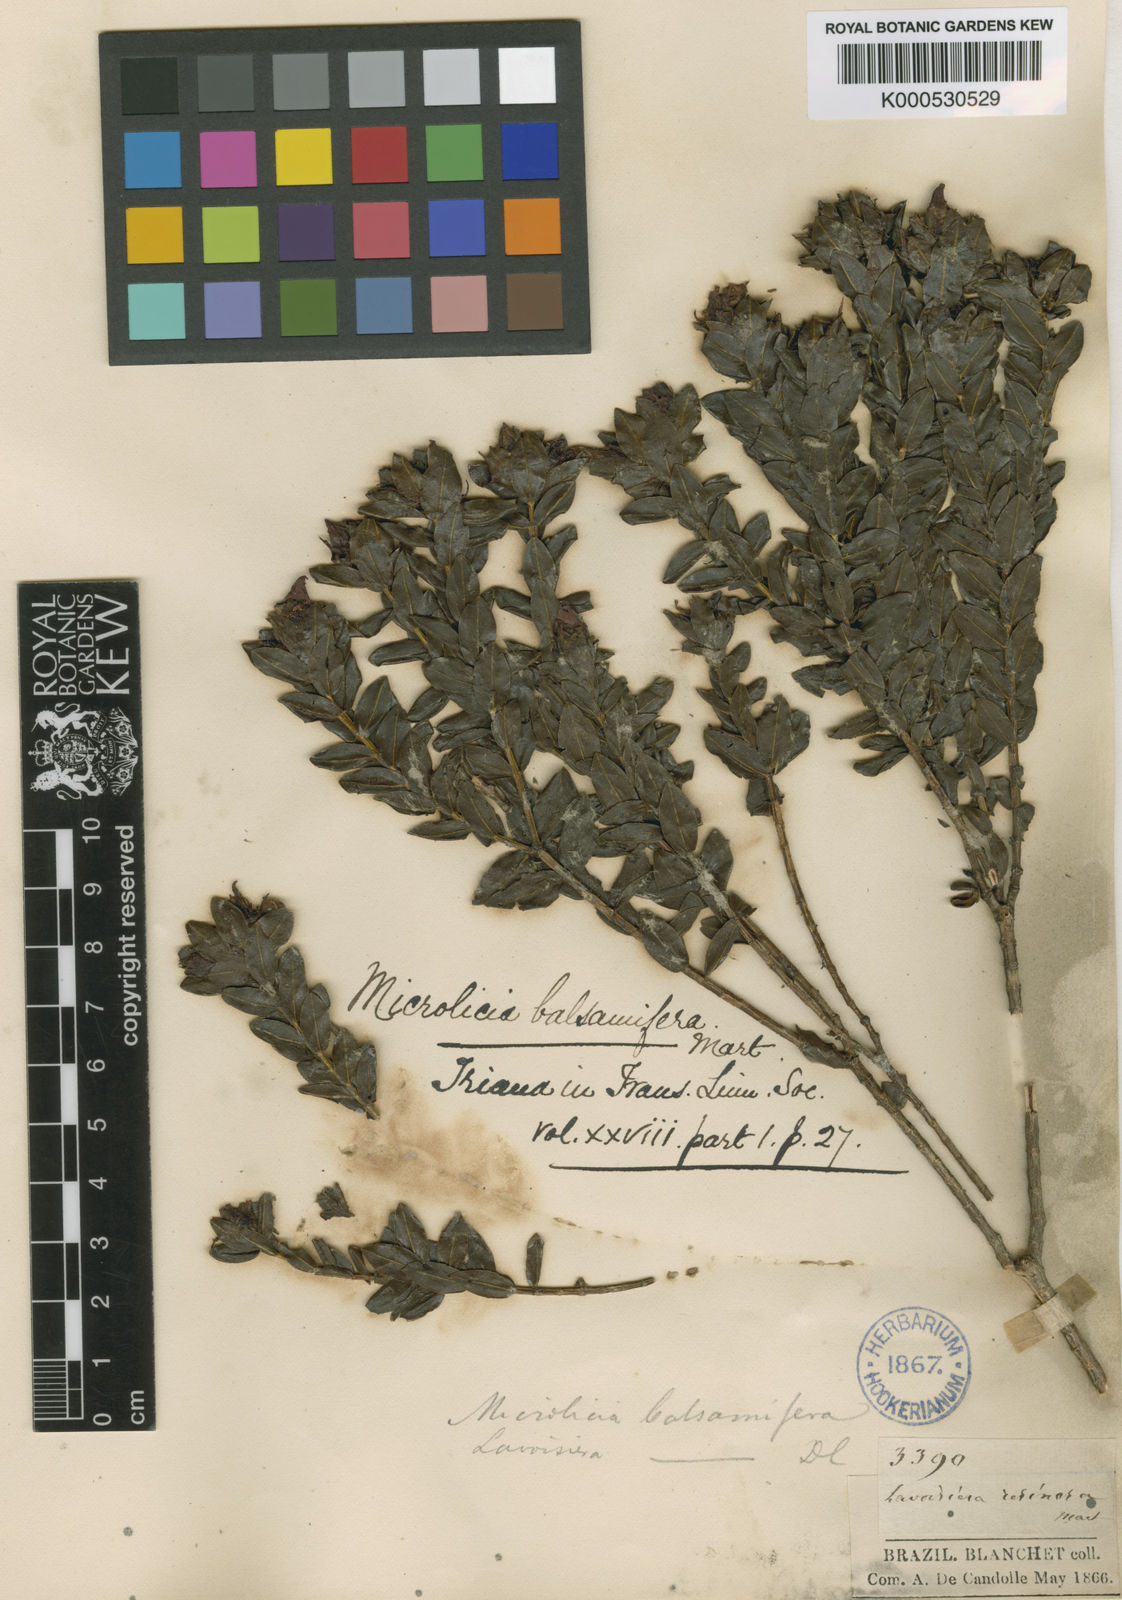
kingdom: Plantae
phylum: Tracheophyta
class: Magnoliopsida
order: Myrtales
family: Melastomataceae
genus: Microlicia
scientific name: Microlicia blanchetiana
